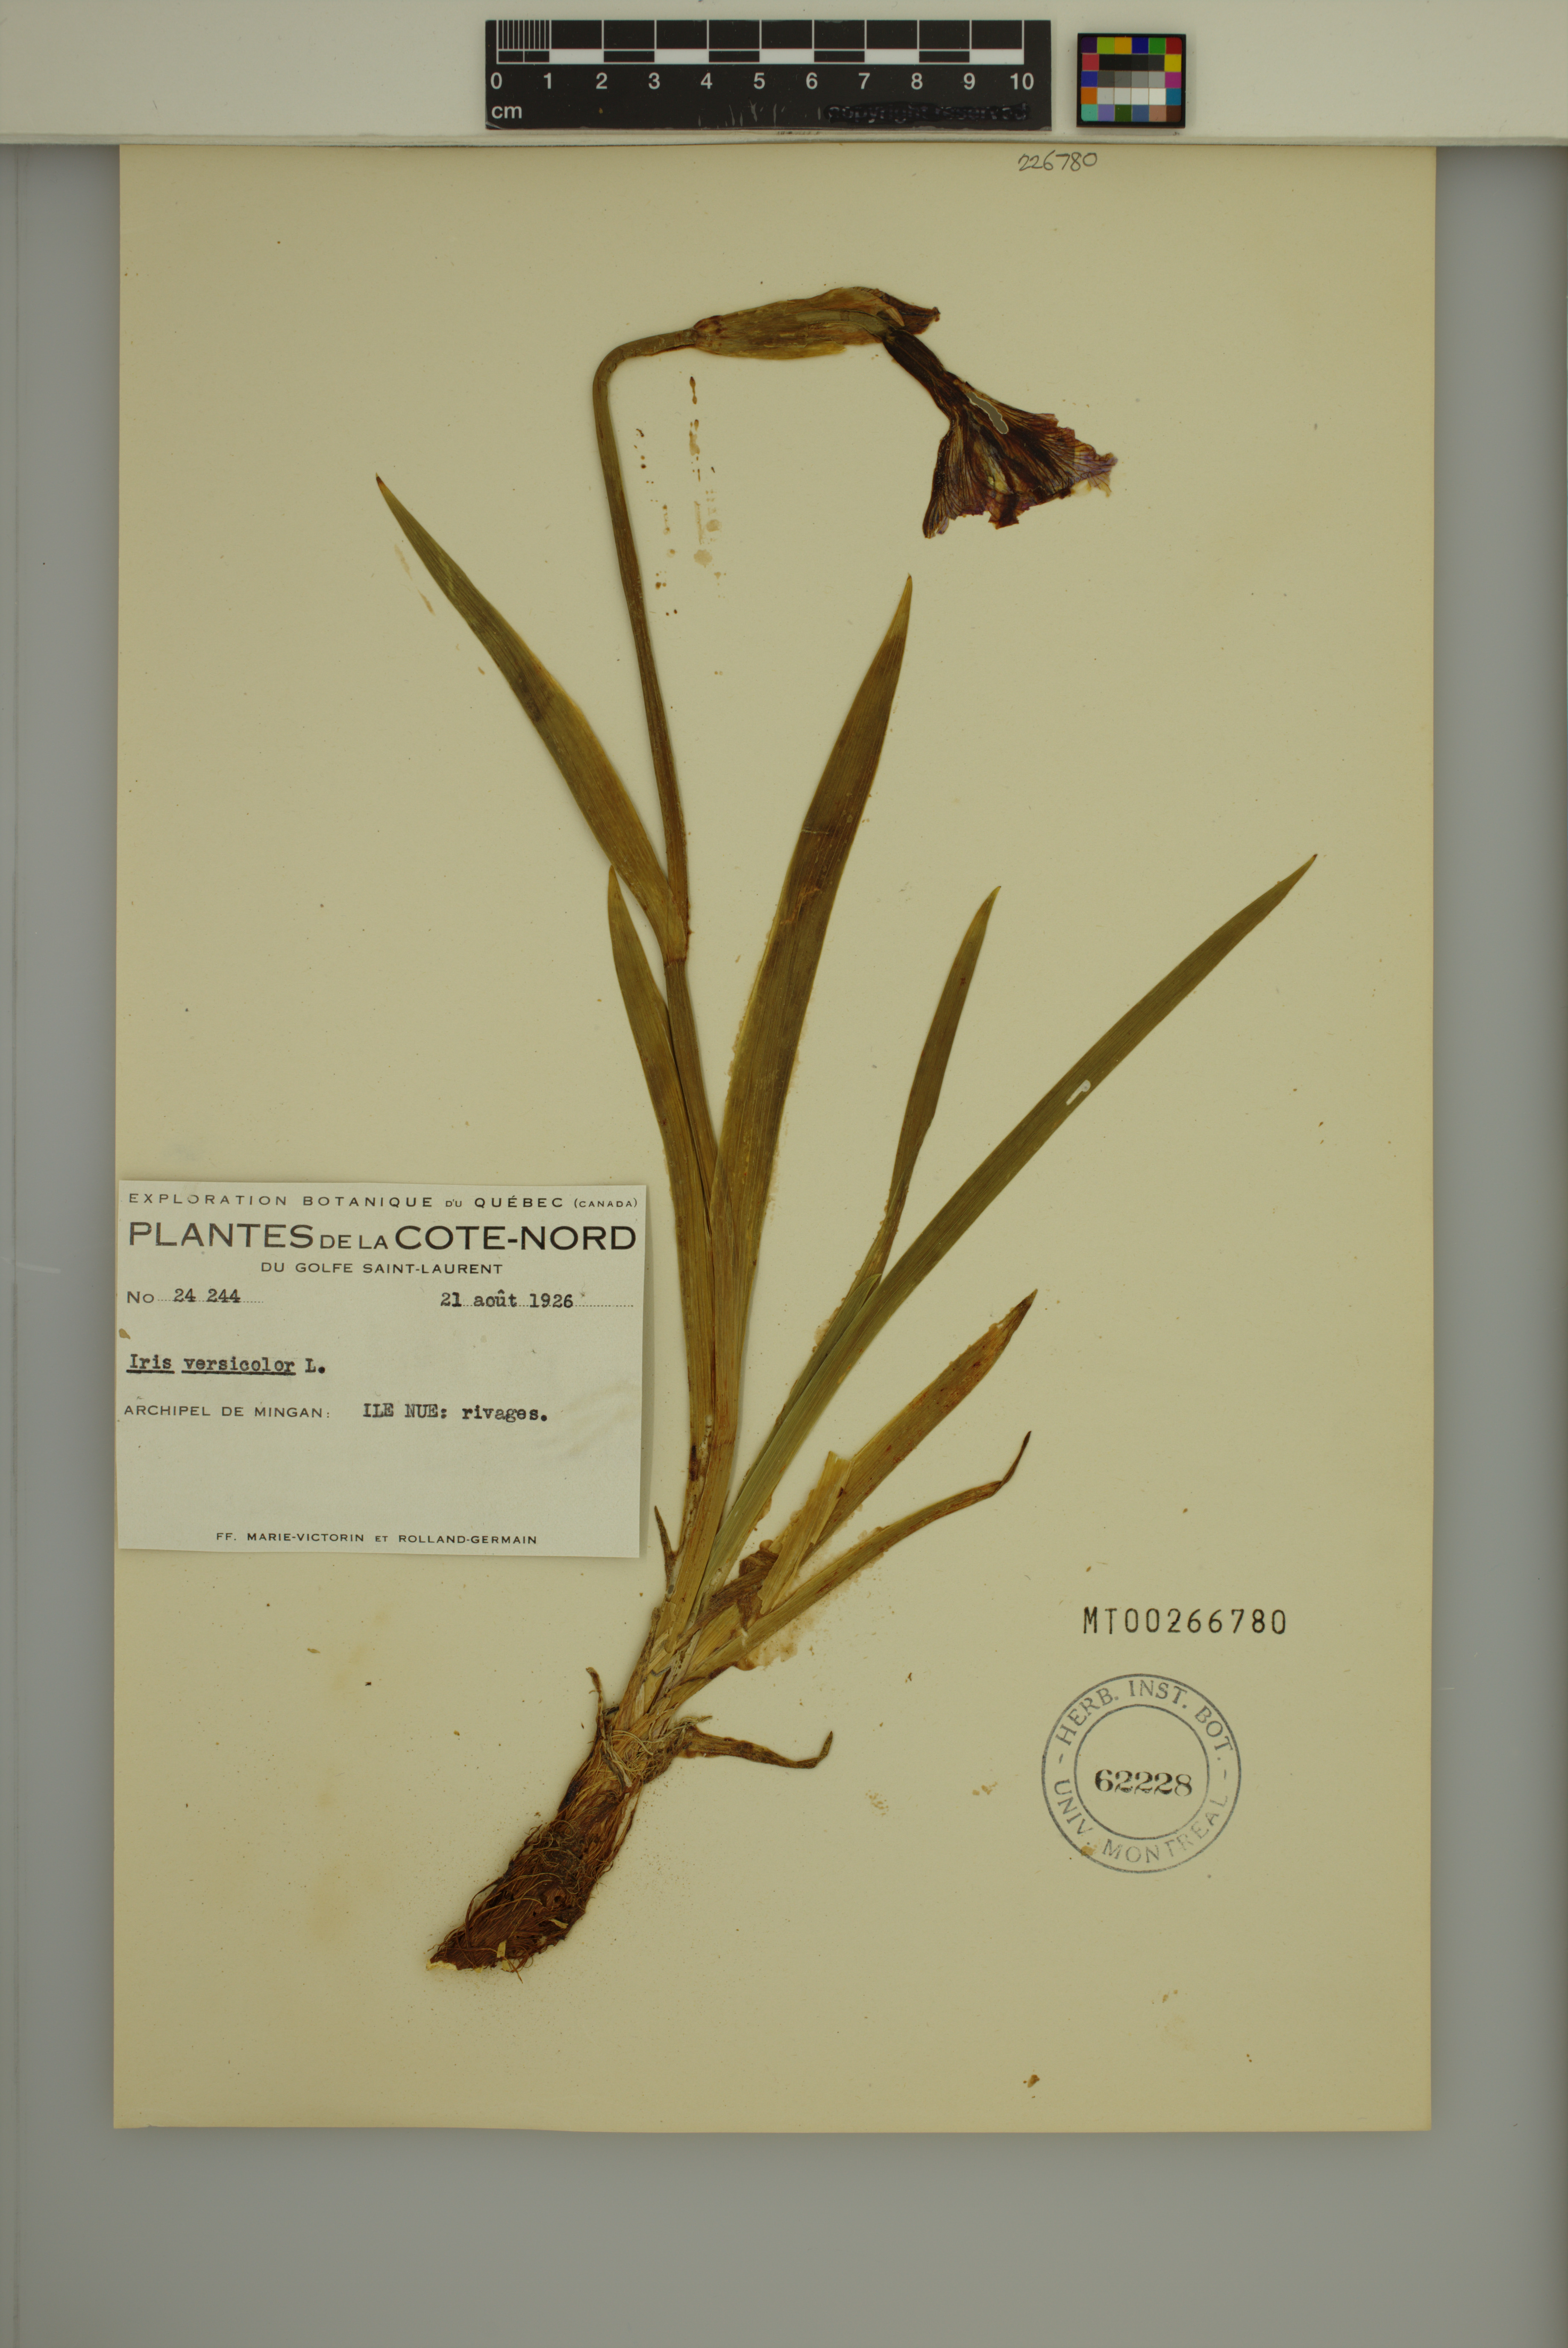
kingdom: Plantae
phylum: Tracheophyta
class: Liliopsida
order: Asparagales
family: Iridaceae
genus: Iris
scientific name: Iris versicolor
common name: Purple iris
